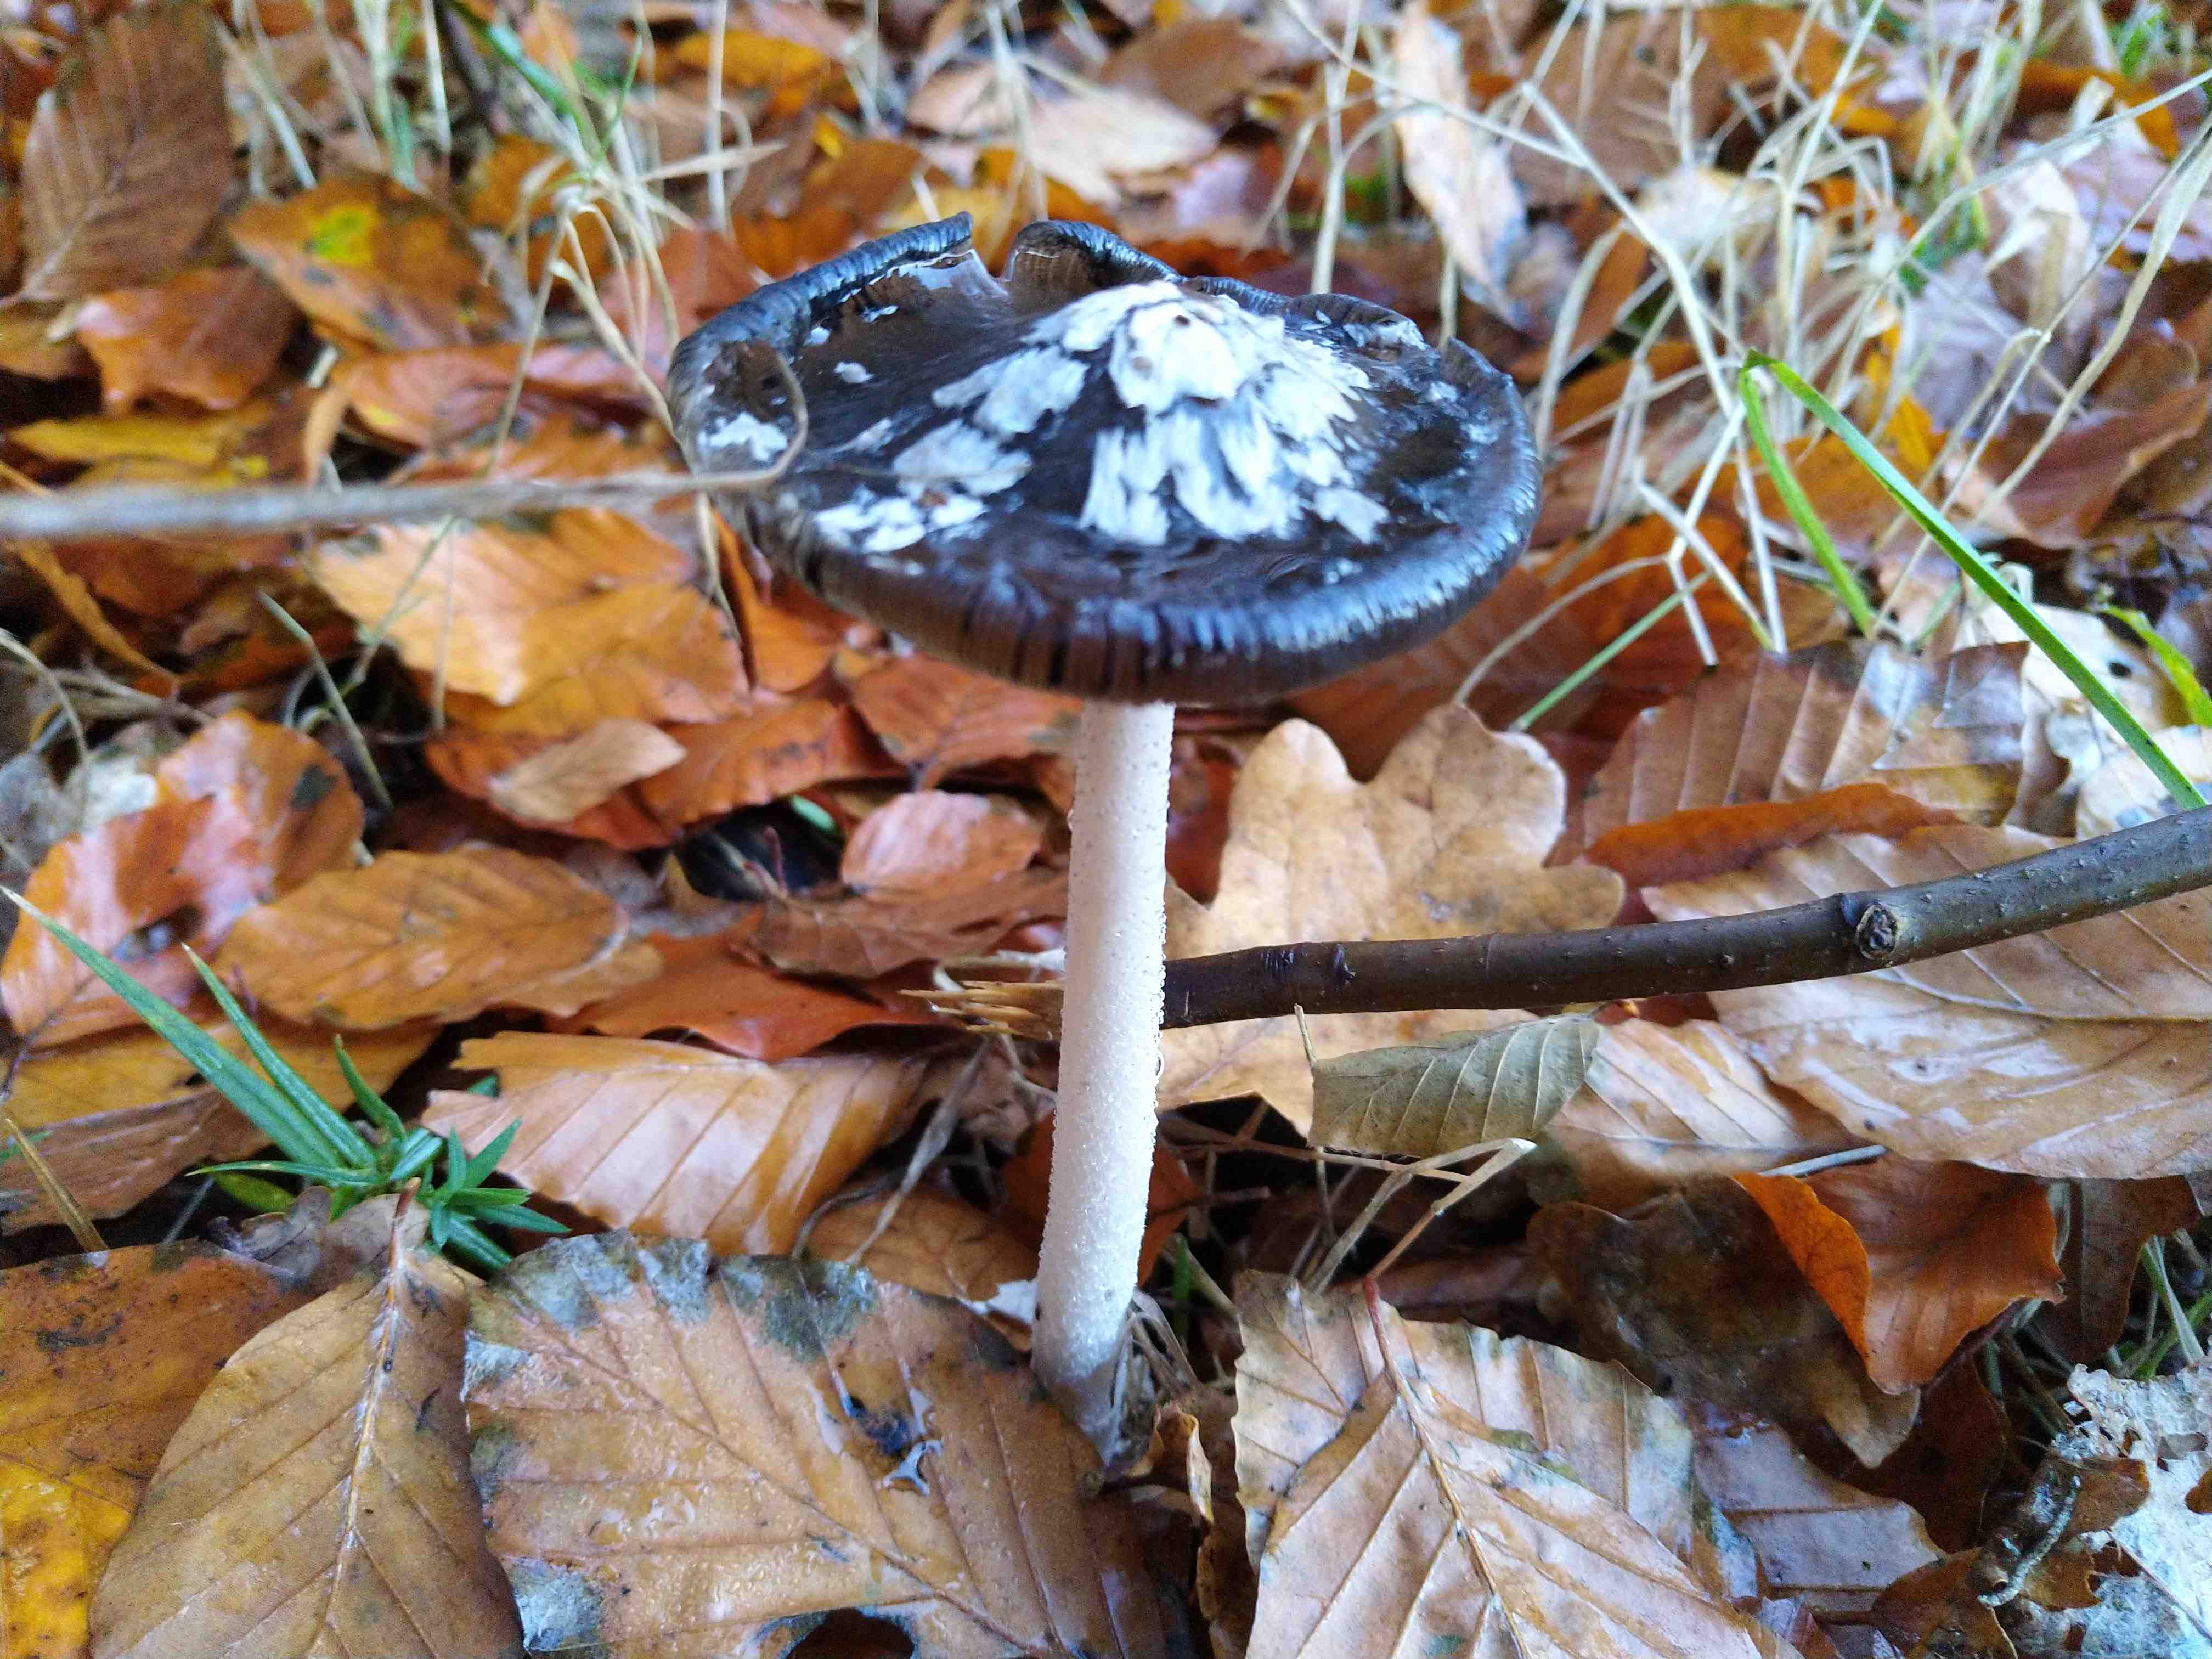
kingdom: Fungi
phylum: Basidiomycota
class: Agaricomycetes
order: Agaricales
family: Psathyrellaceae
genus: Coprinopsis
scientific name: Coprinopsis picacea
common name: skade-blækhat
